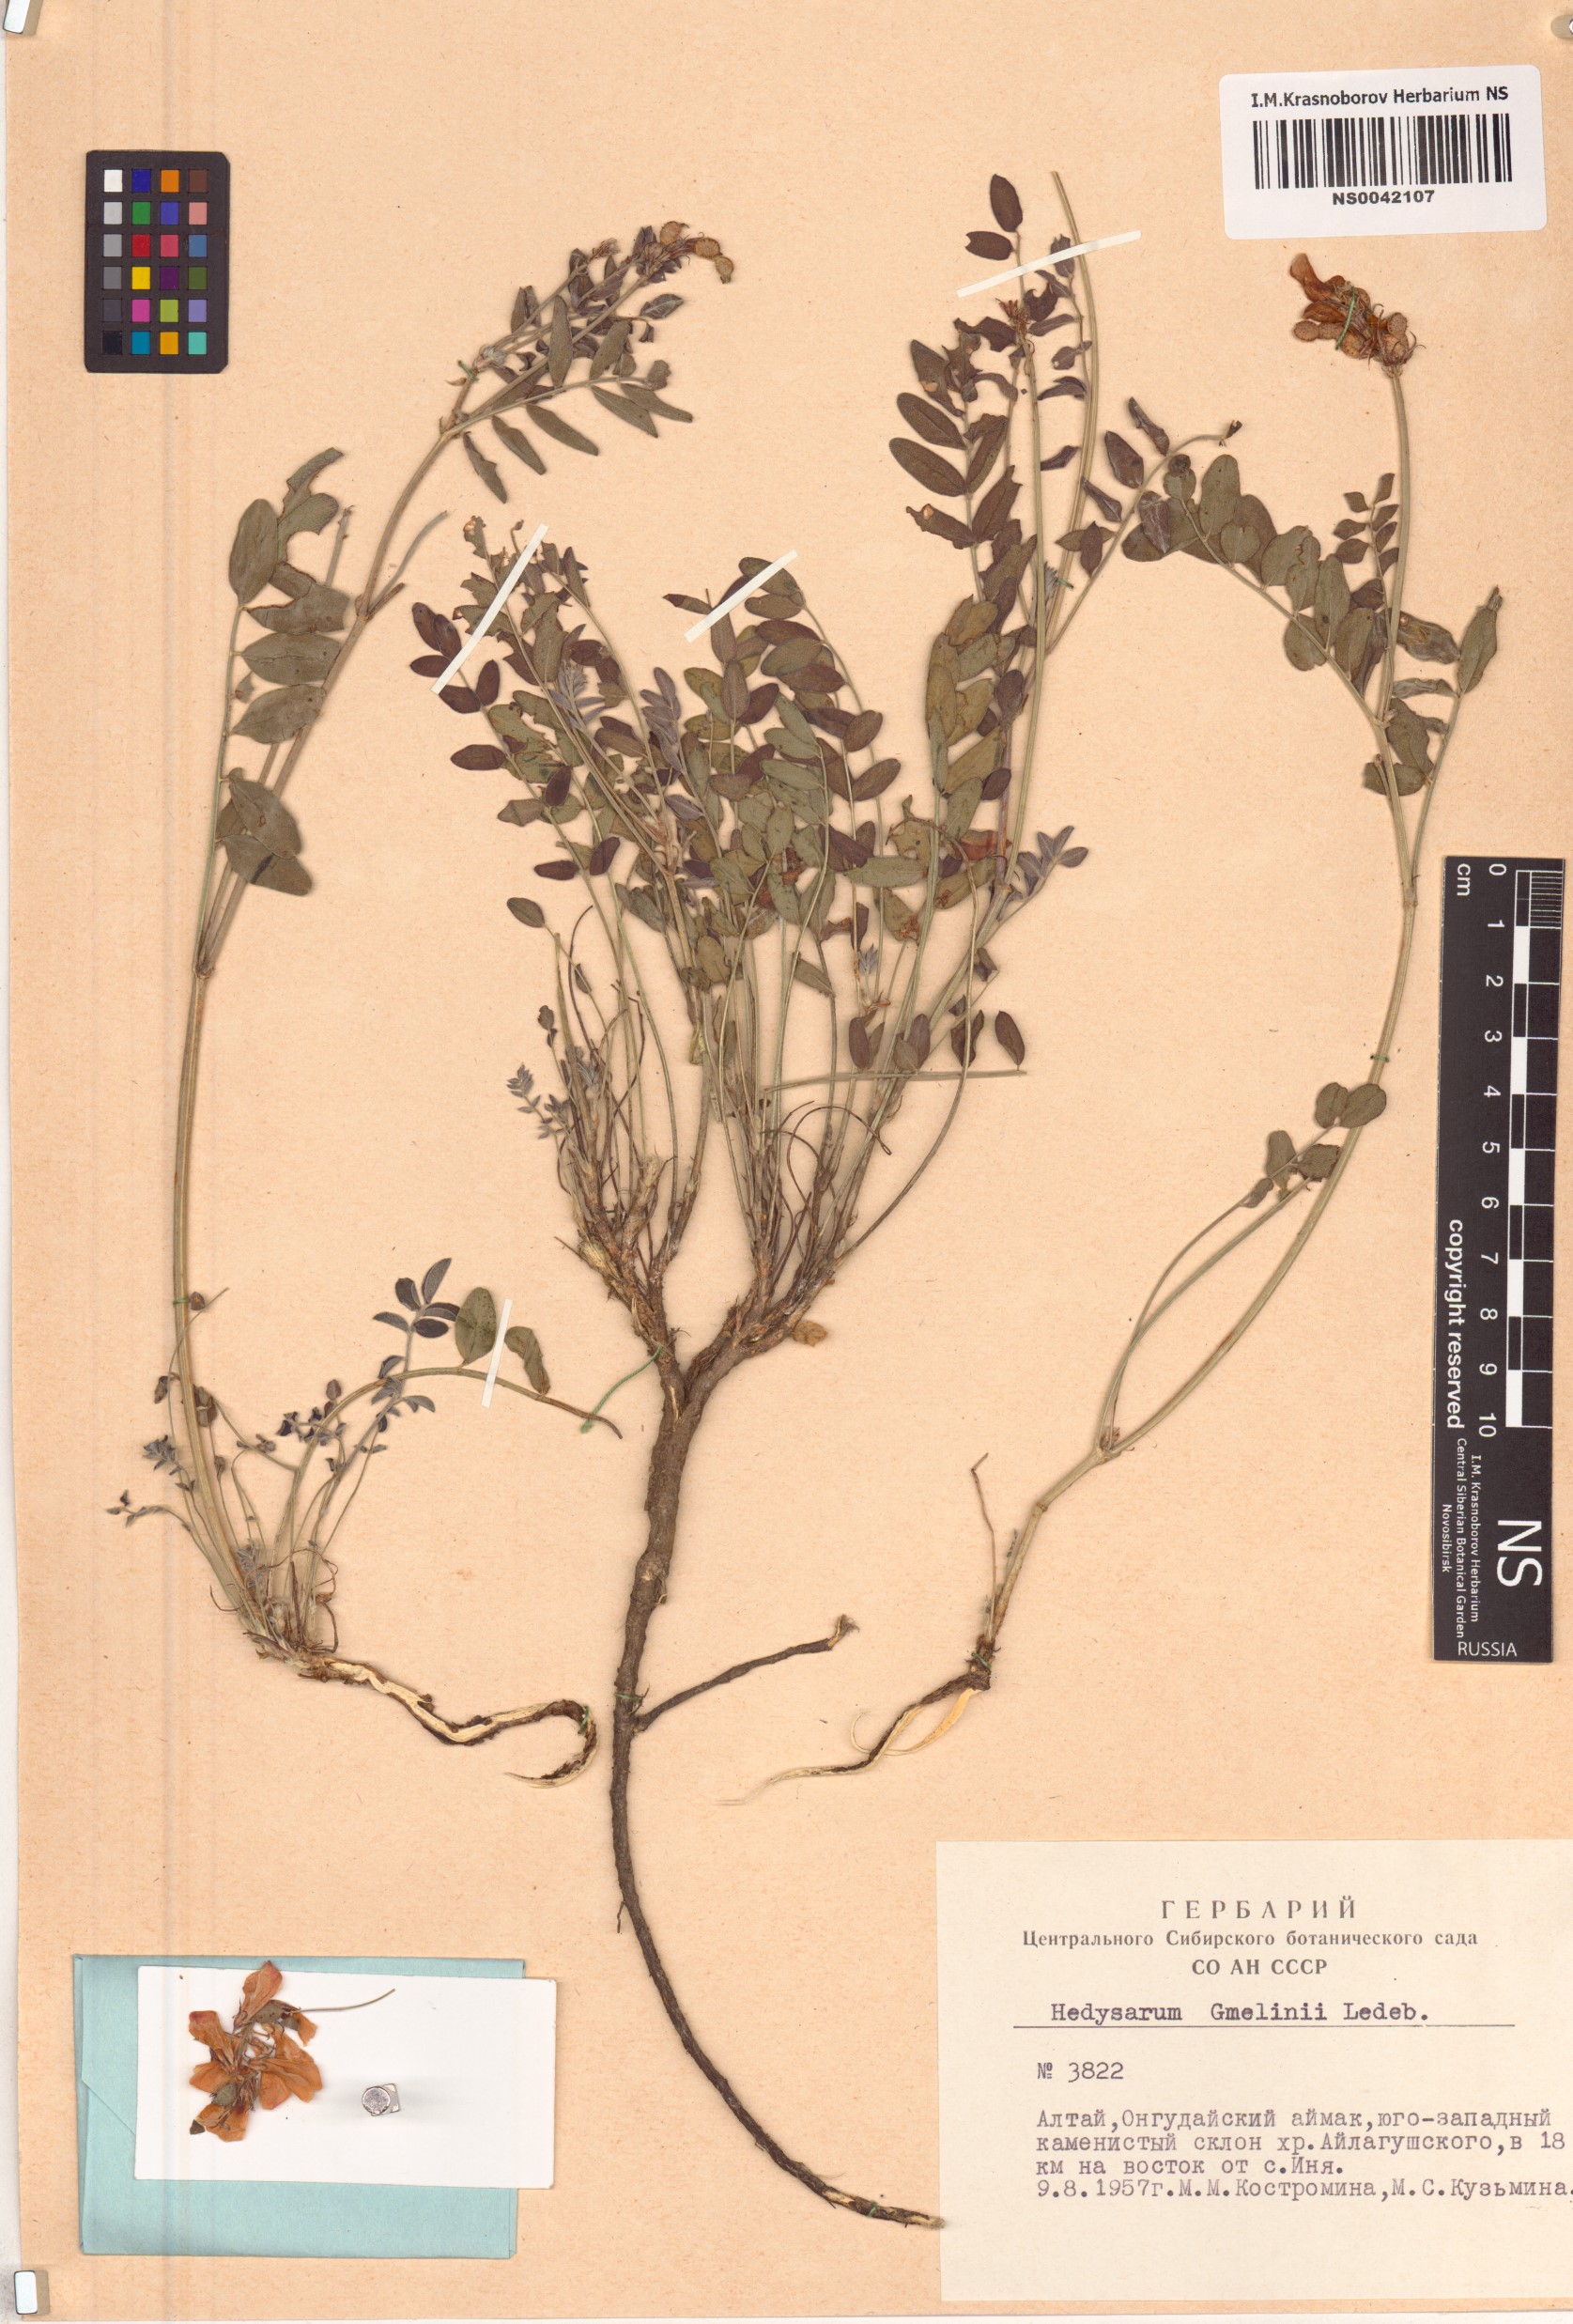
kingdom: Plantae
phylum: Tracheophyta
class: Magnoliopsida
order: Fabales
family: Fabaceae
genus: Hedysarum
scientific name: Hedysarum gmelinii
